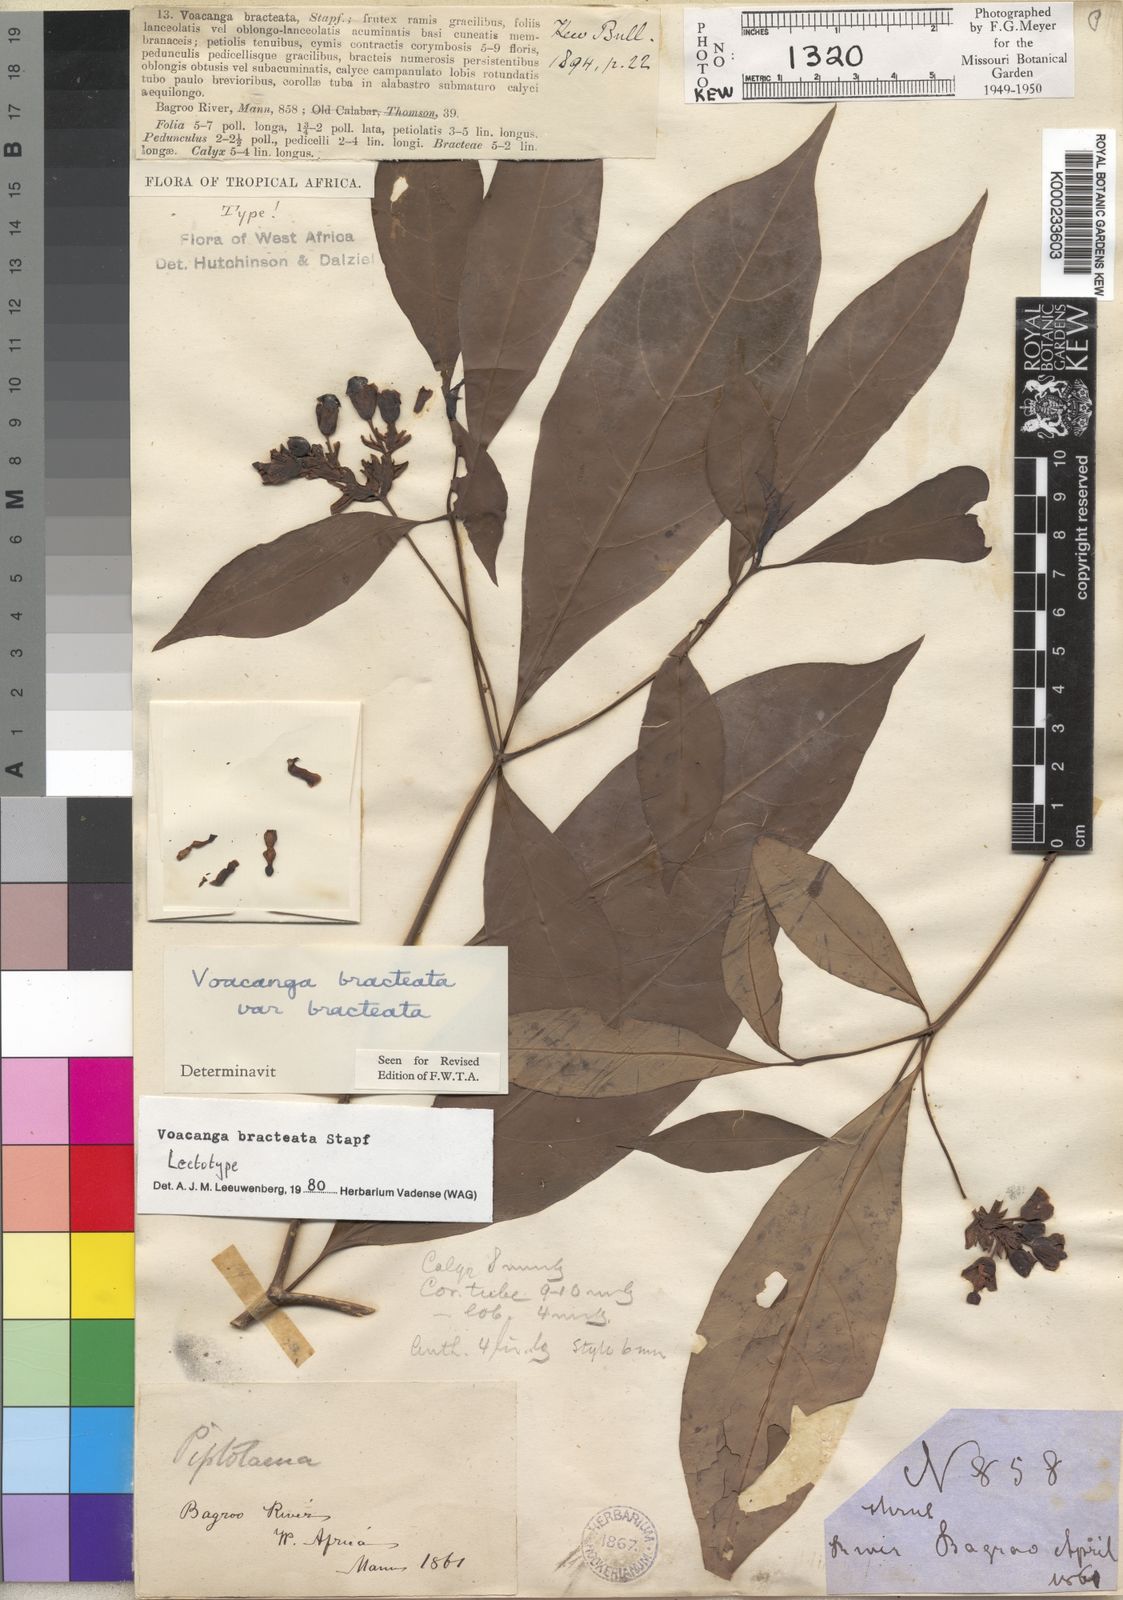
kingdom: Plantae
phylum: Tracheophyta
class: Magnoliopsida
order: Gentianales
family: Apocynaceae
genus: Voacanga
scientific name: Voacanga bracteata
